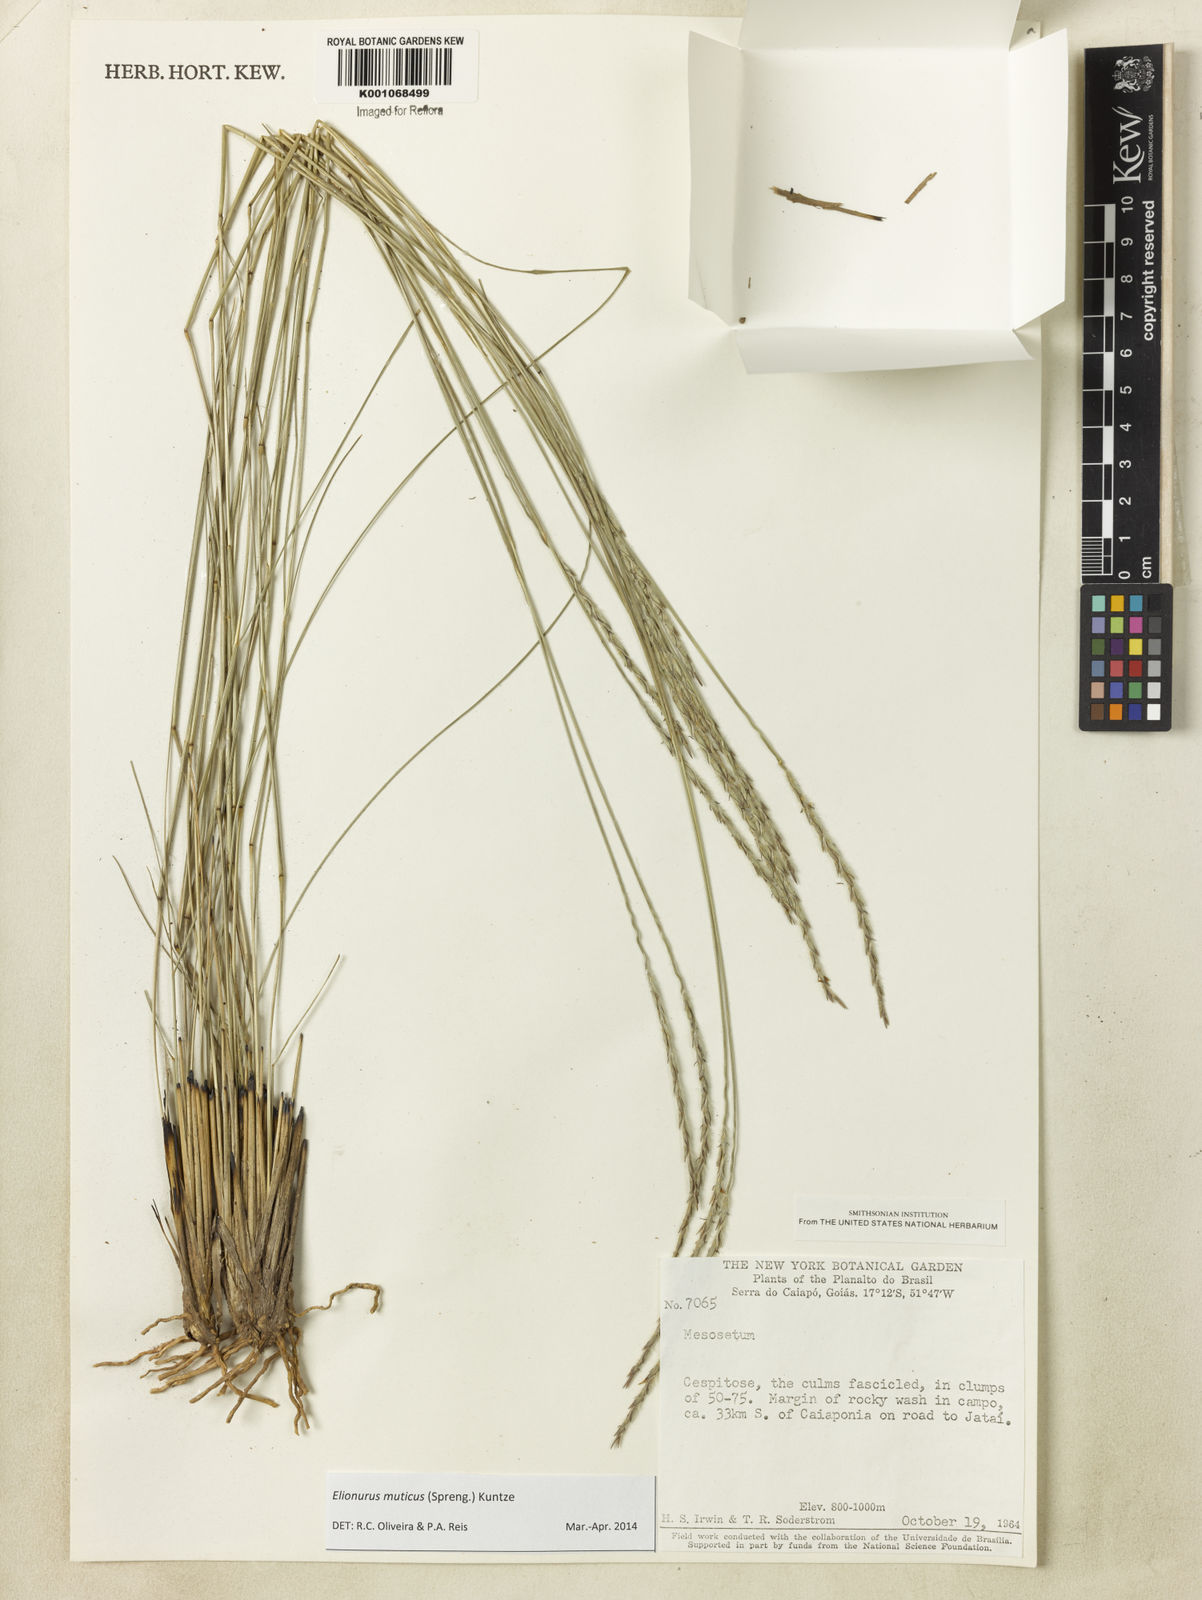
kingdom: Plantae
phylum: Tracheophyta
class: Liliopsida
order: Poales
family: Poaceae
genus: Elionurus
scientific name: Elionurus muticus
